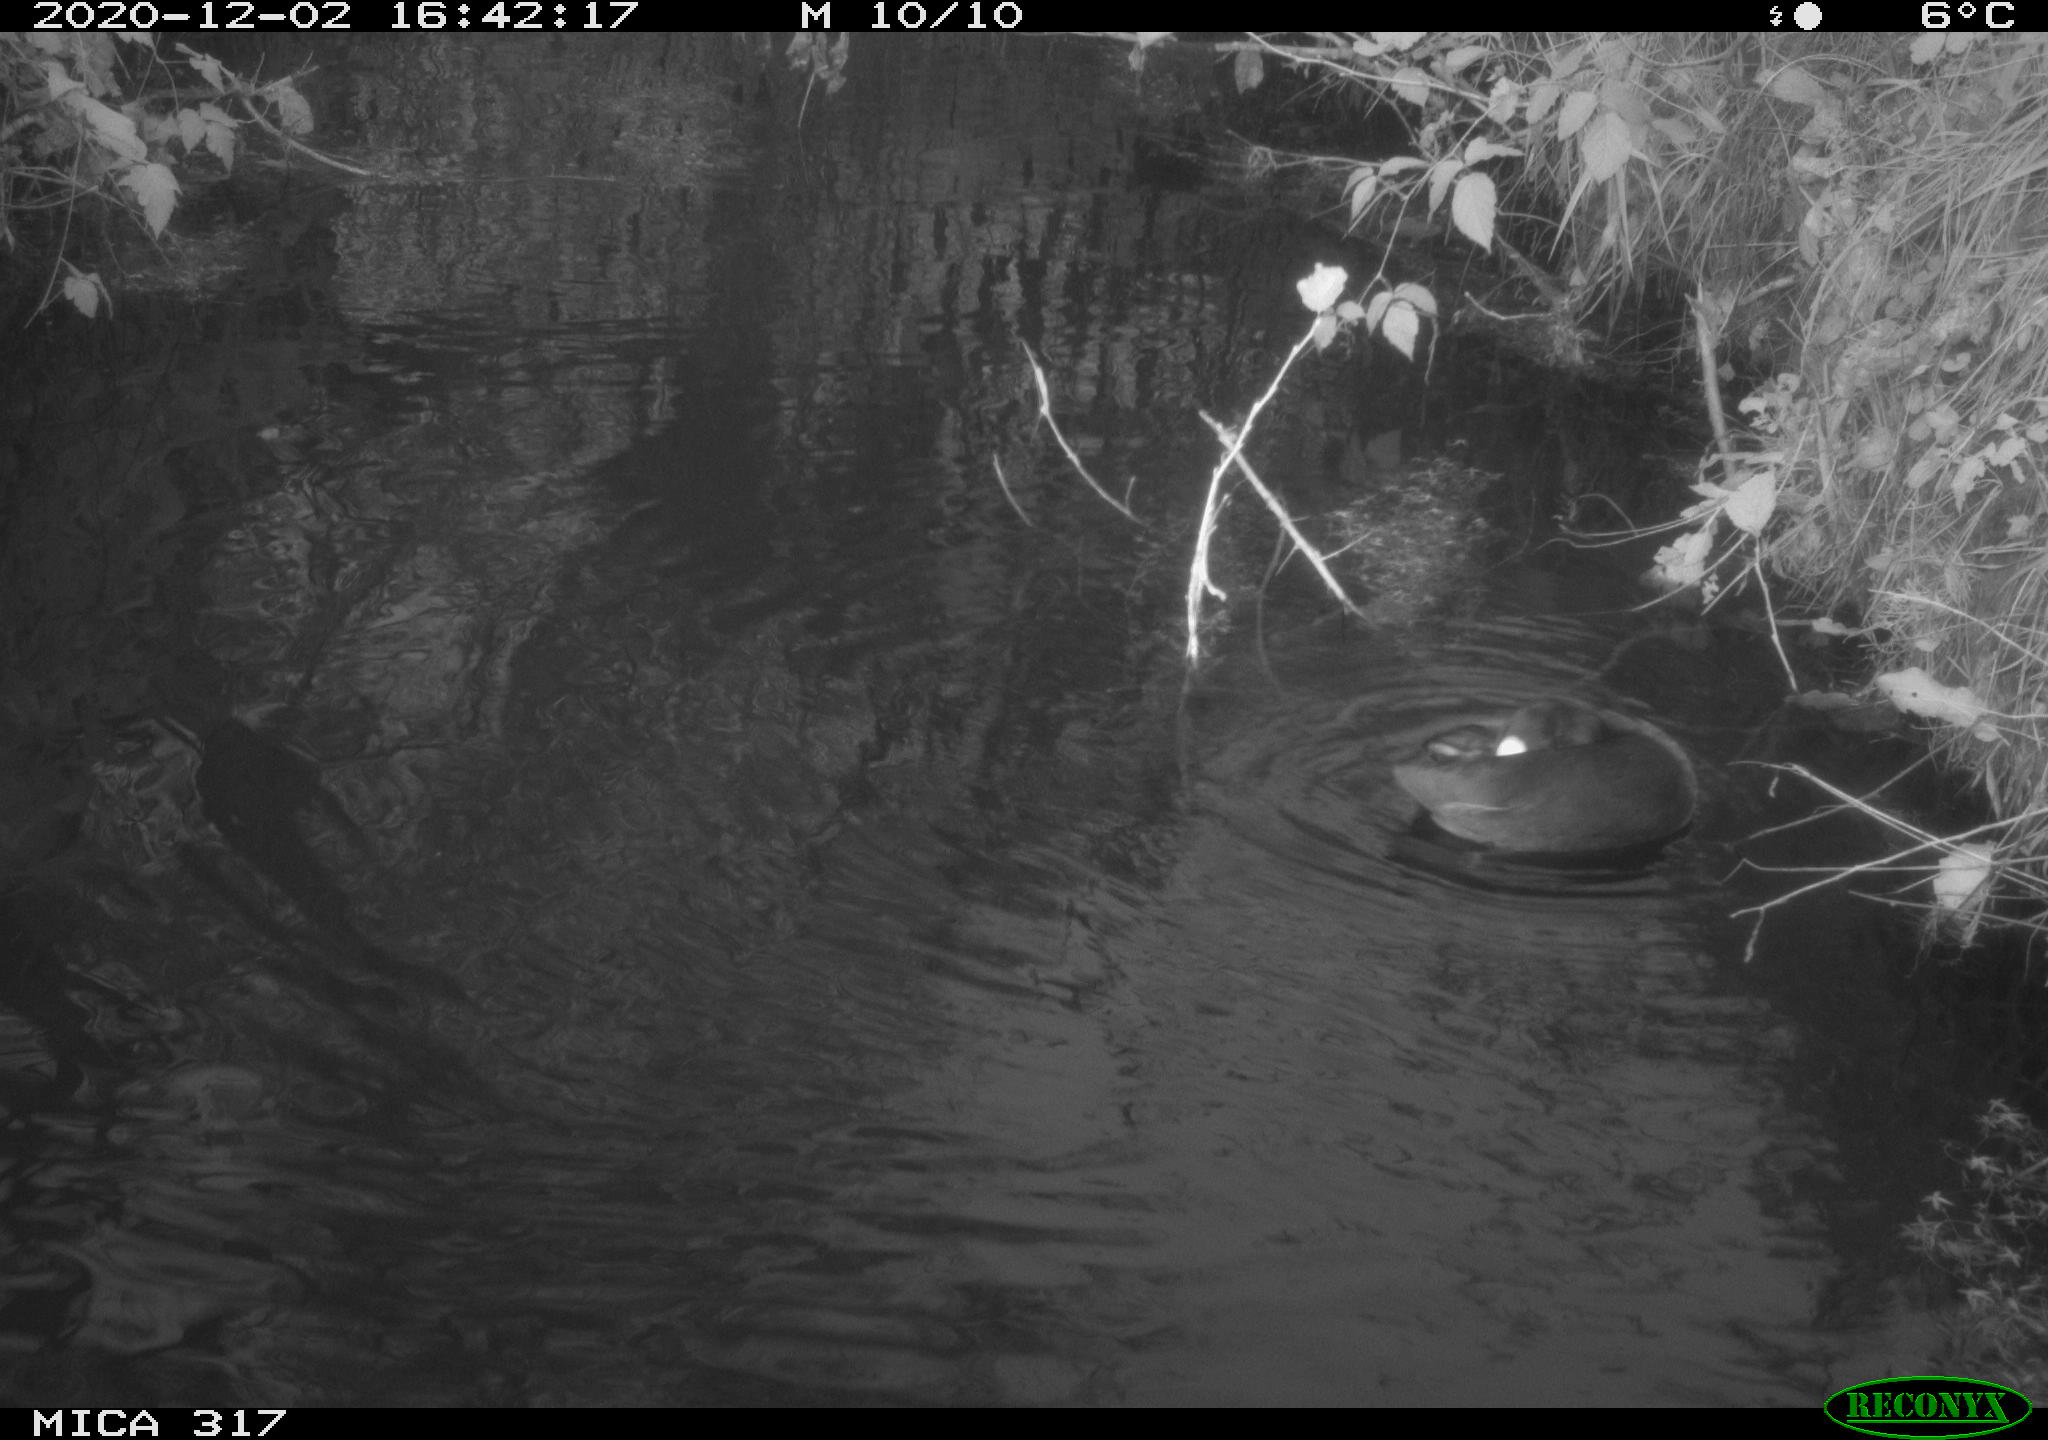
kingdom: Animalia
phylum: Chordata
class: Aves
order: Gruiformes
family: Rallidae
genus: Fulica
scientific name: Fulica atra
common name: Eurasian coot
